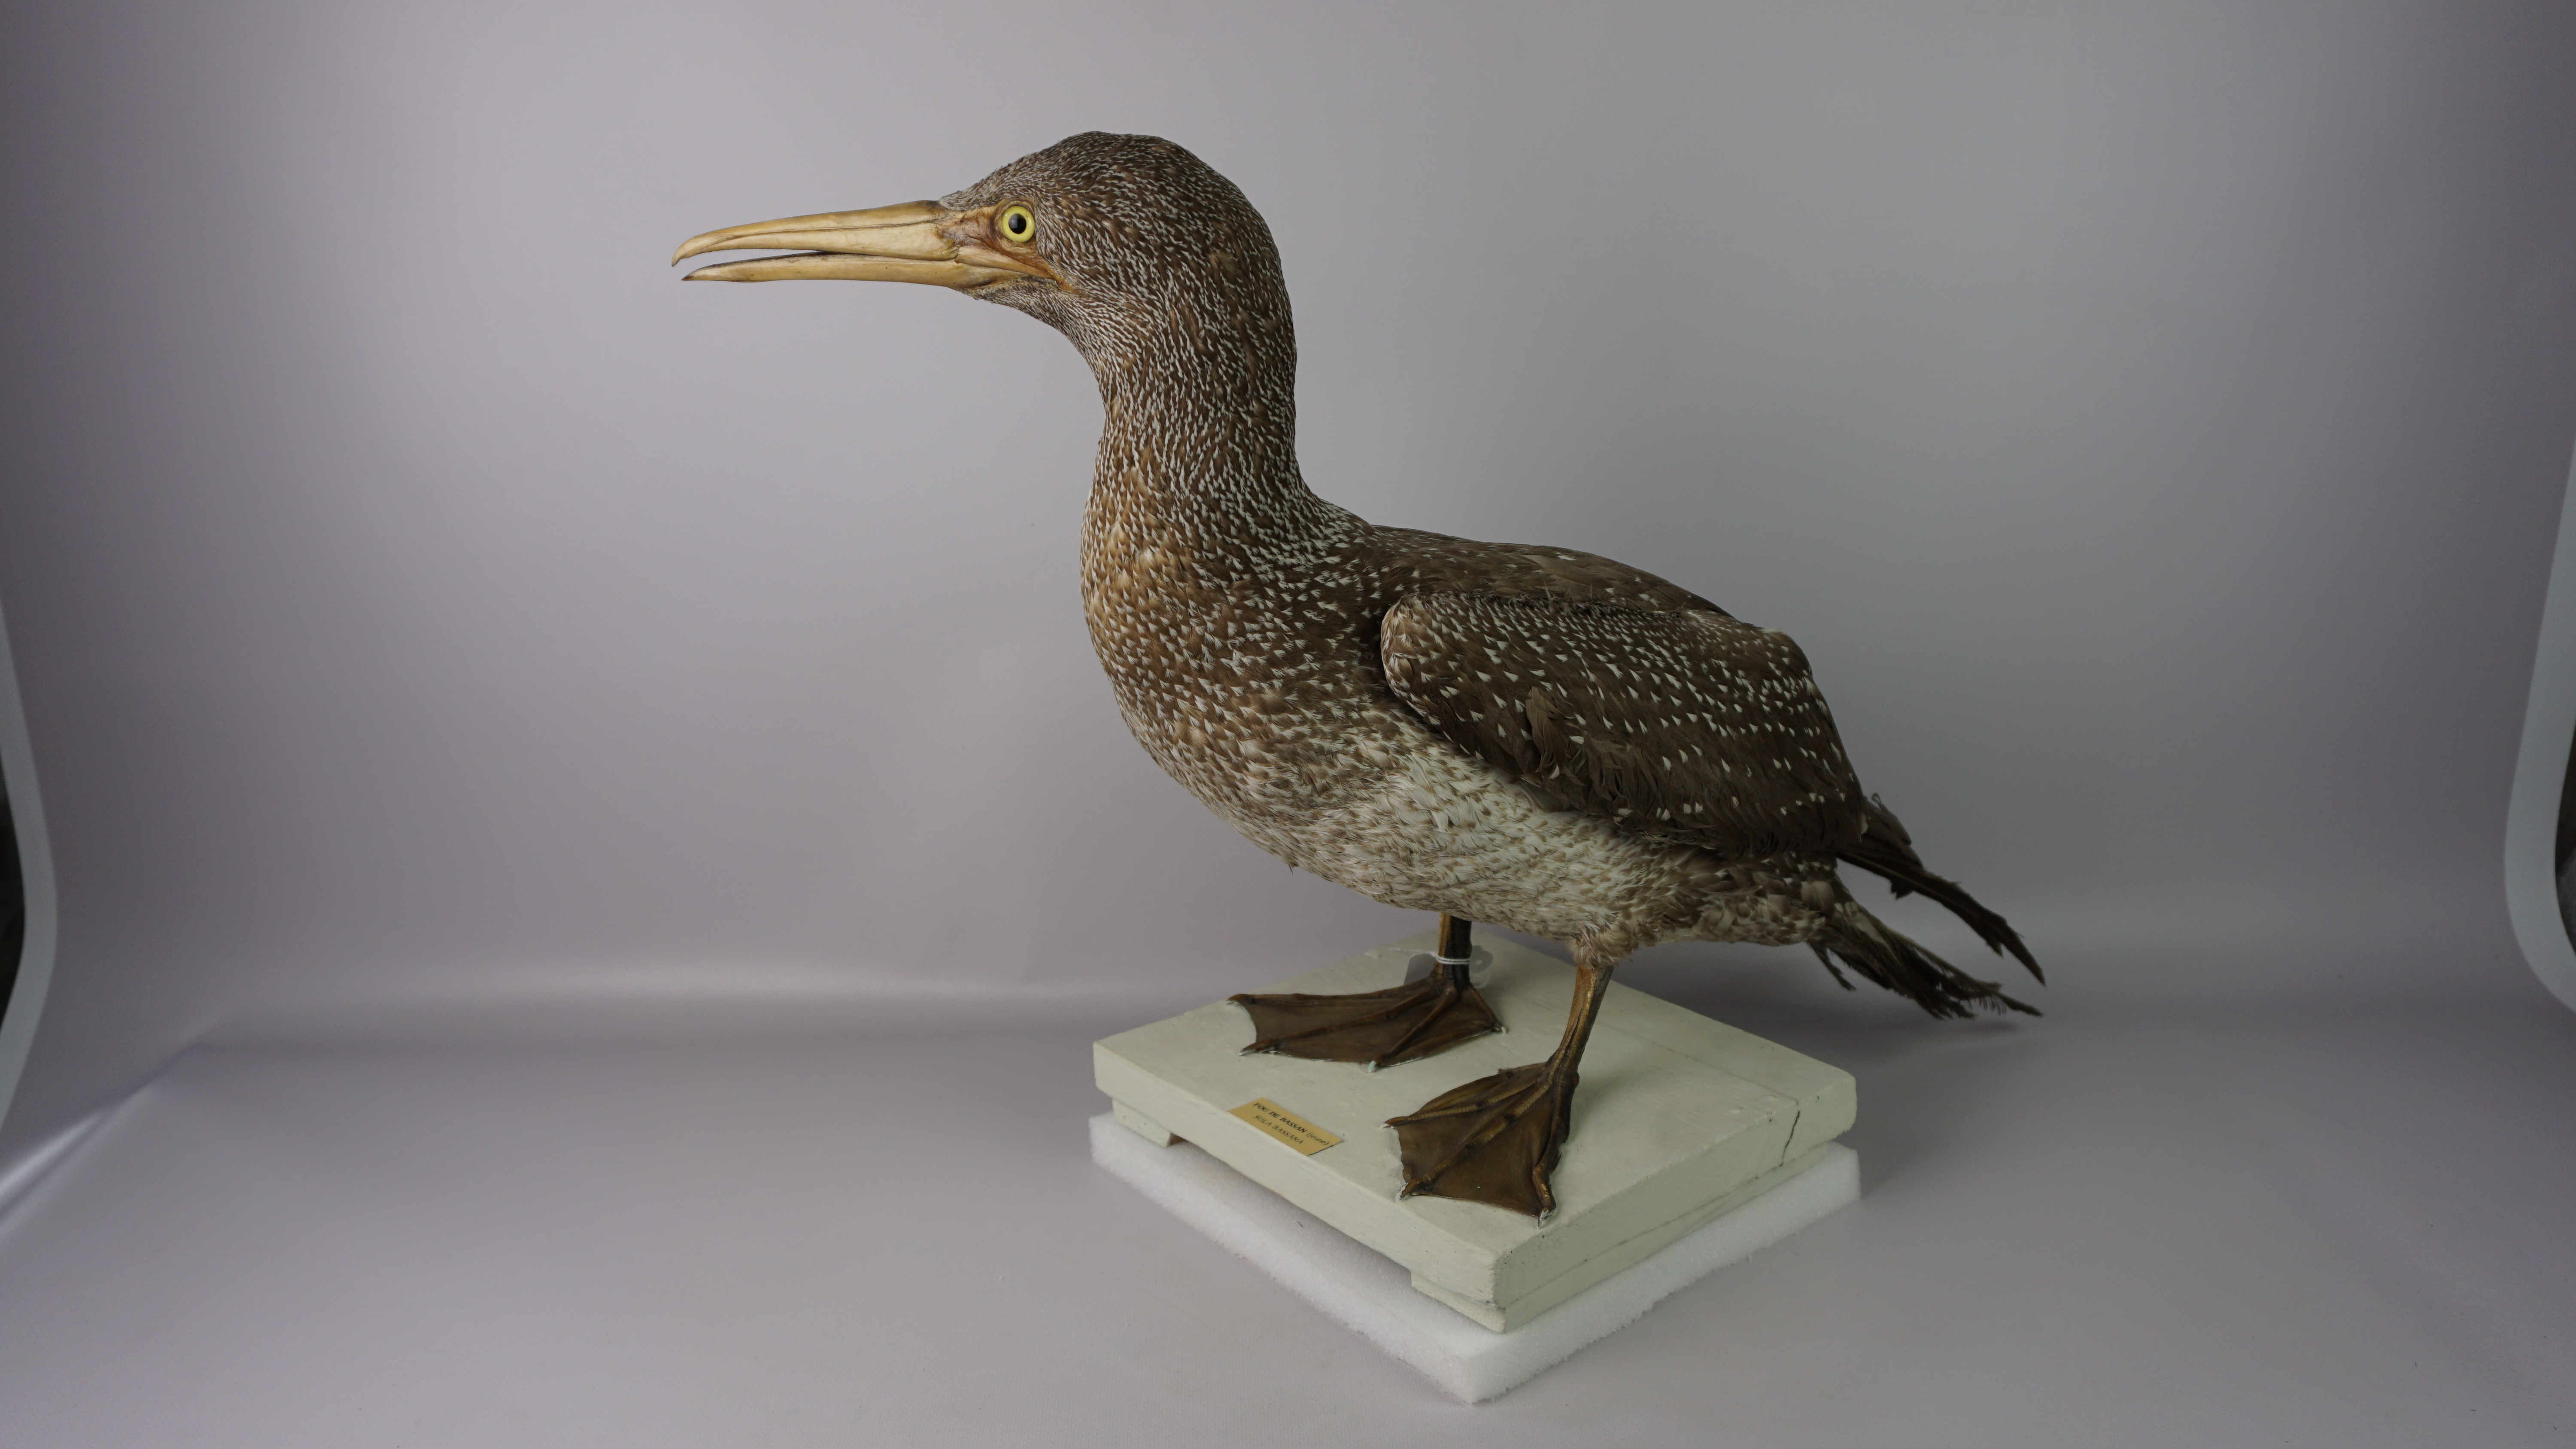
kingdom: Animalia
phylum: Chordata
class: Aves
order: Suliformes
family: Sulidae
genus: Morus
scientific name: Morus bassanus
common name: Northern gannet
